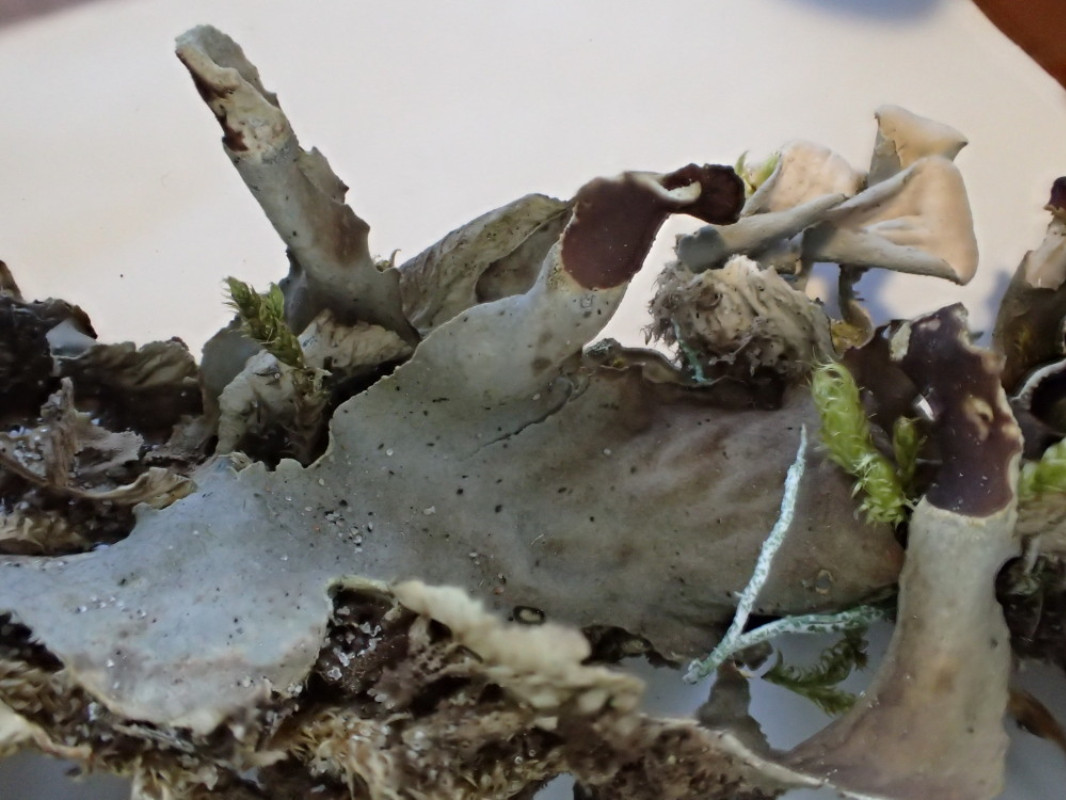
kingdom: Fungi
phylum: Ascomycota
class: Lecanoromycetes
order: Peltigerales
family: Peltigeraceae
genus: Peltigera
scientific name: Peltigera
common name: skjoldlav
